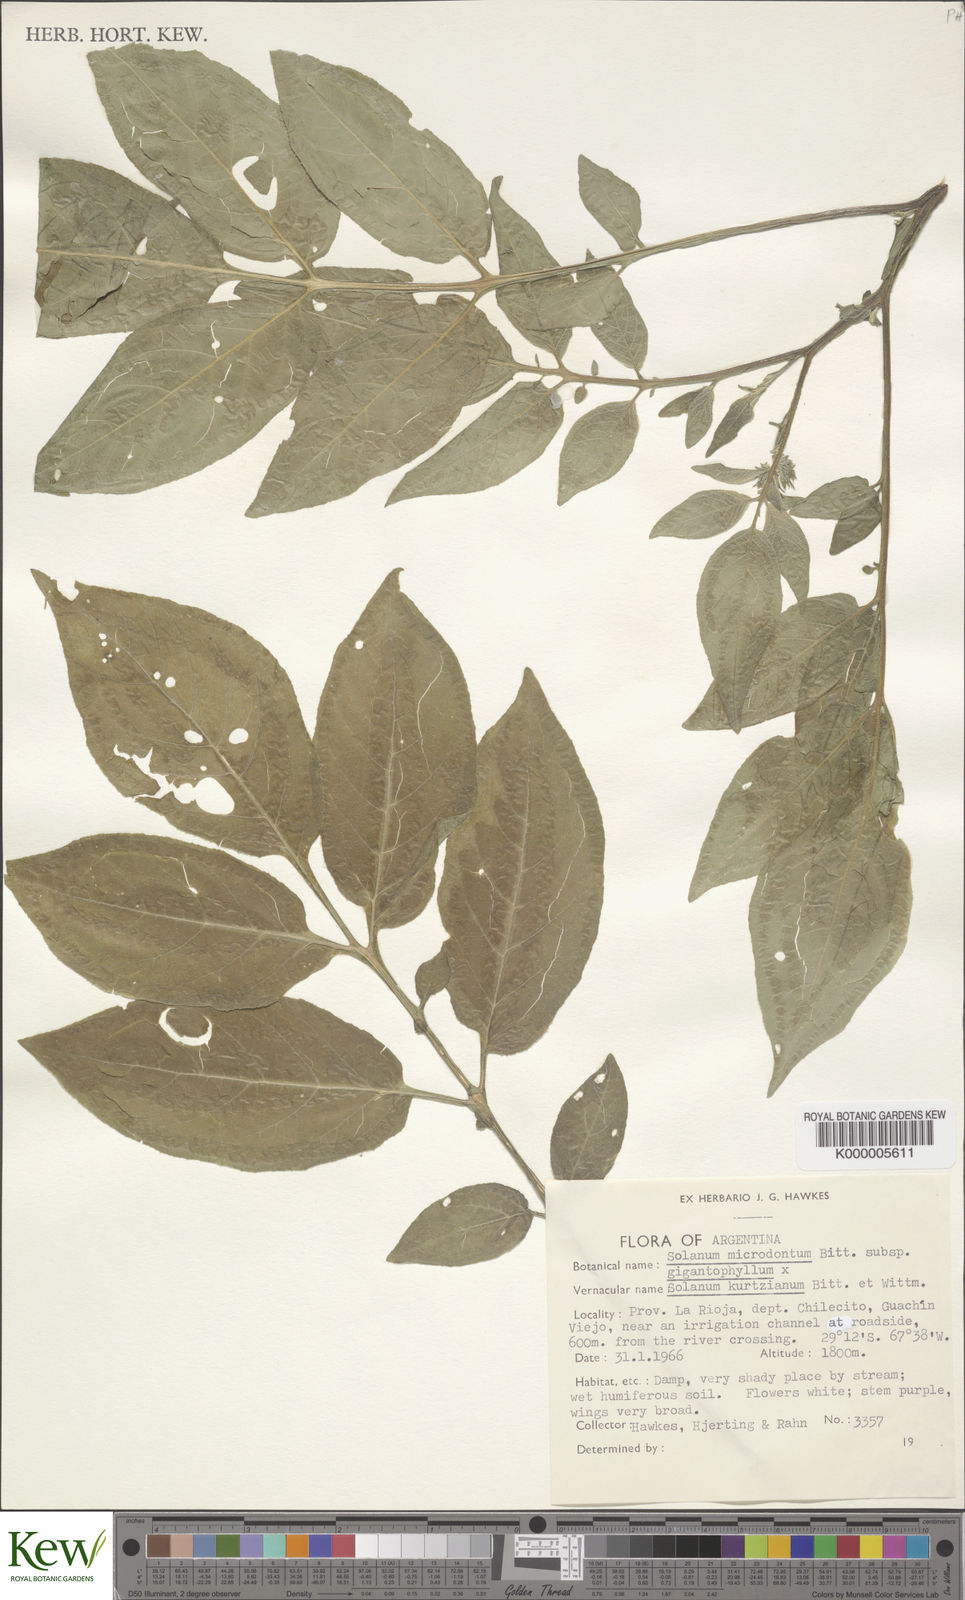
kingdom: Plantae
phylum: Tracheophyta
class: Magnoliopsida
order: Solanales
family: Solanaceae
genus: Solanum
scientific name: Solanum microdontum
